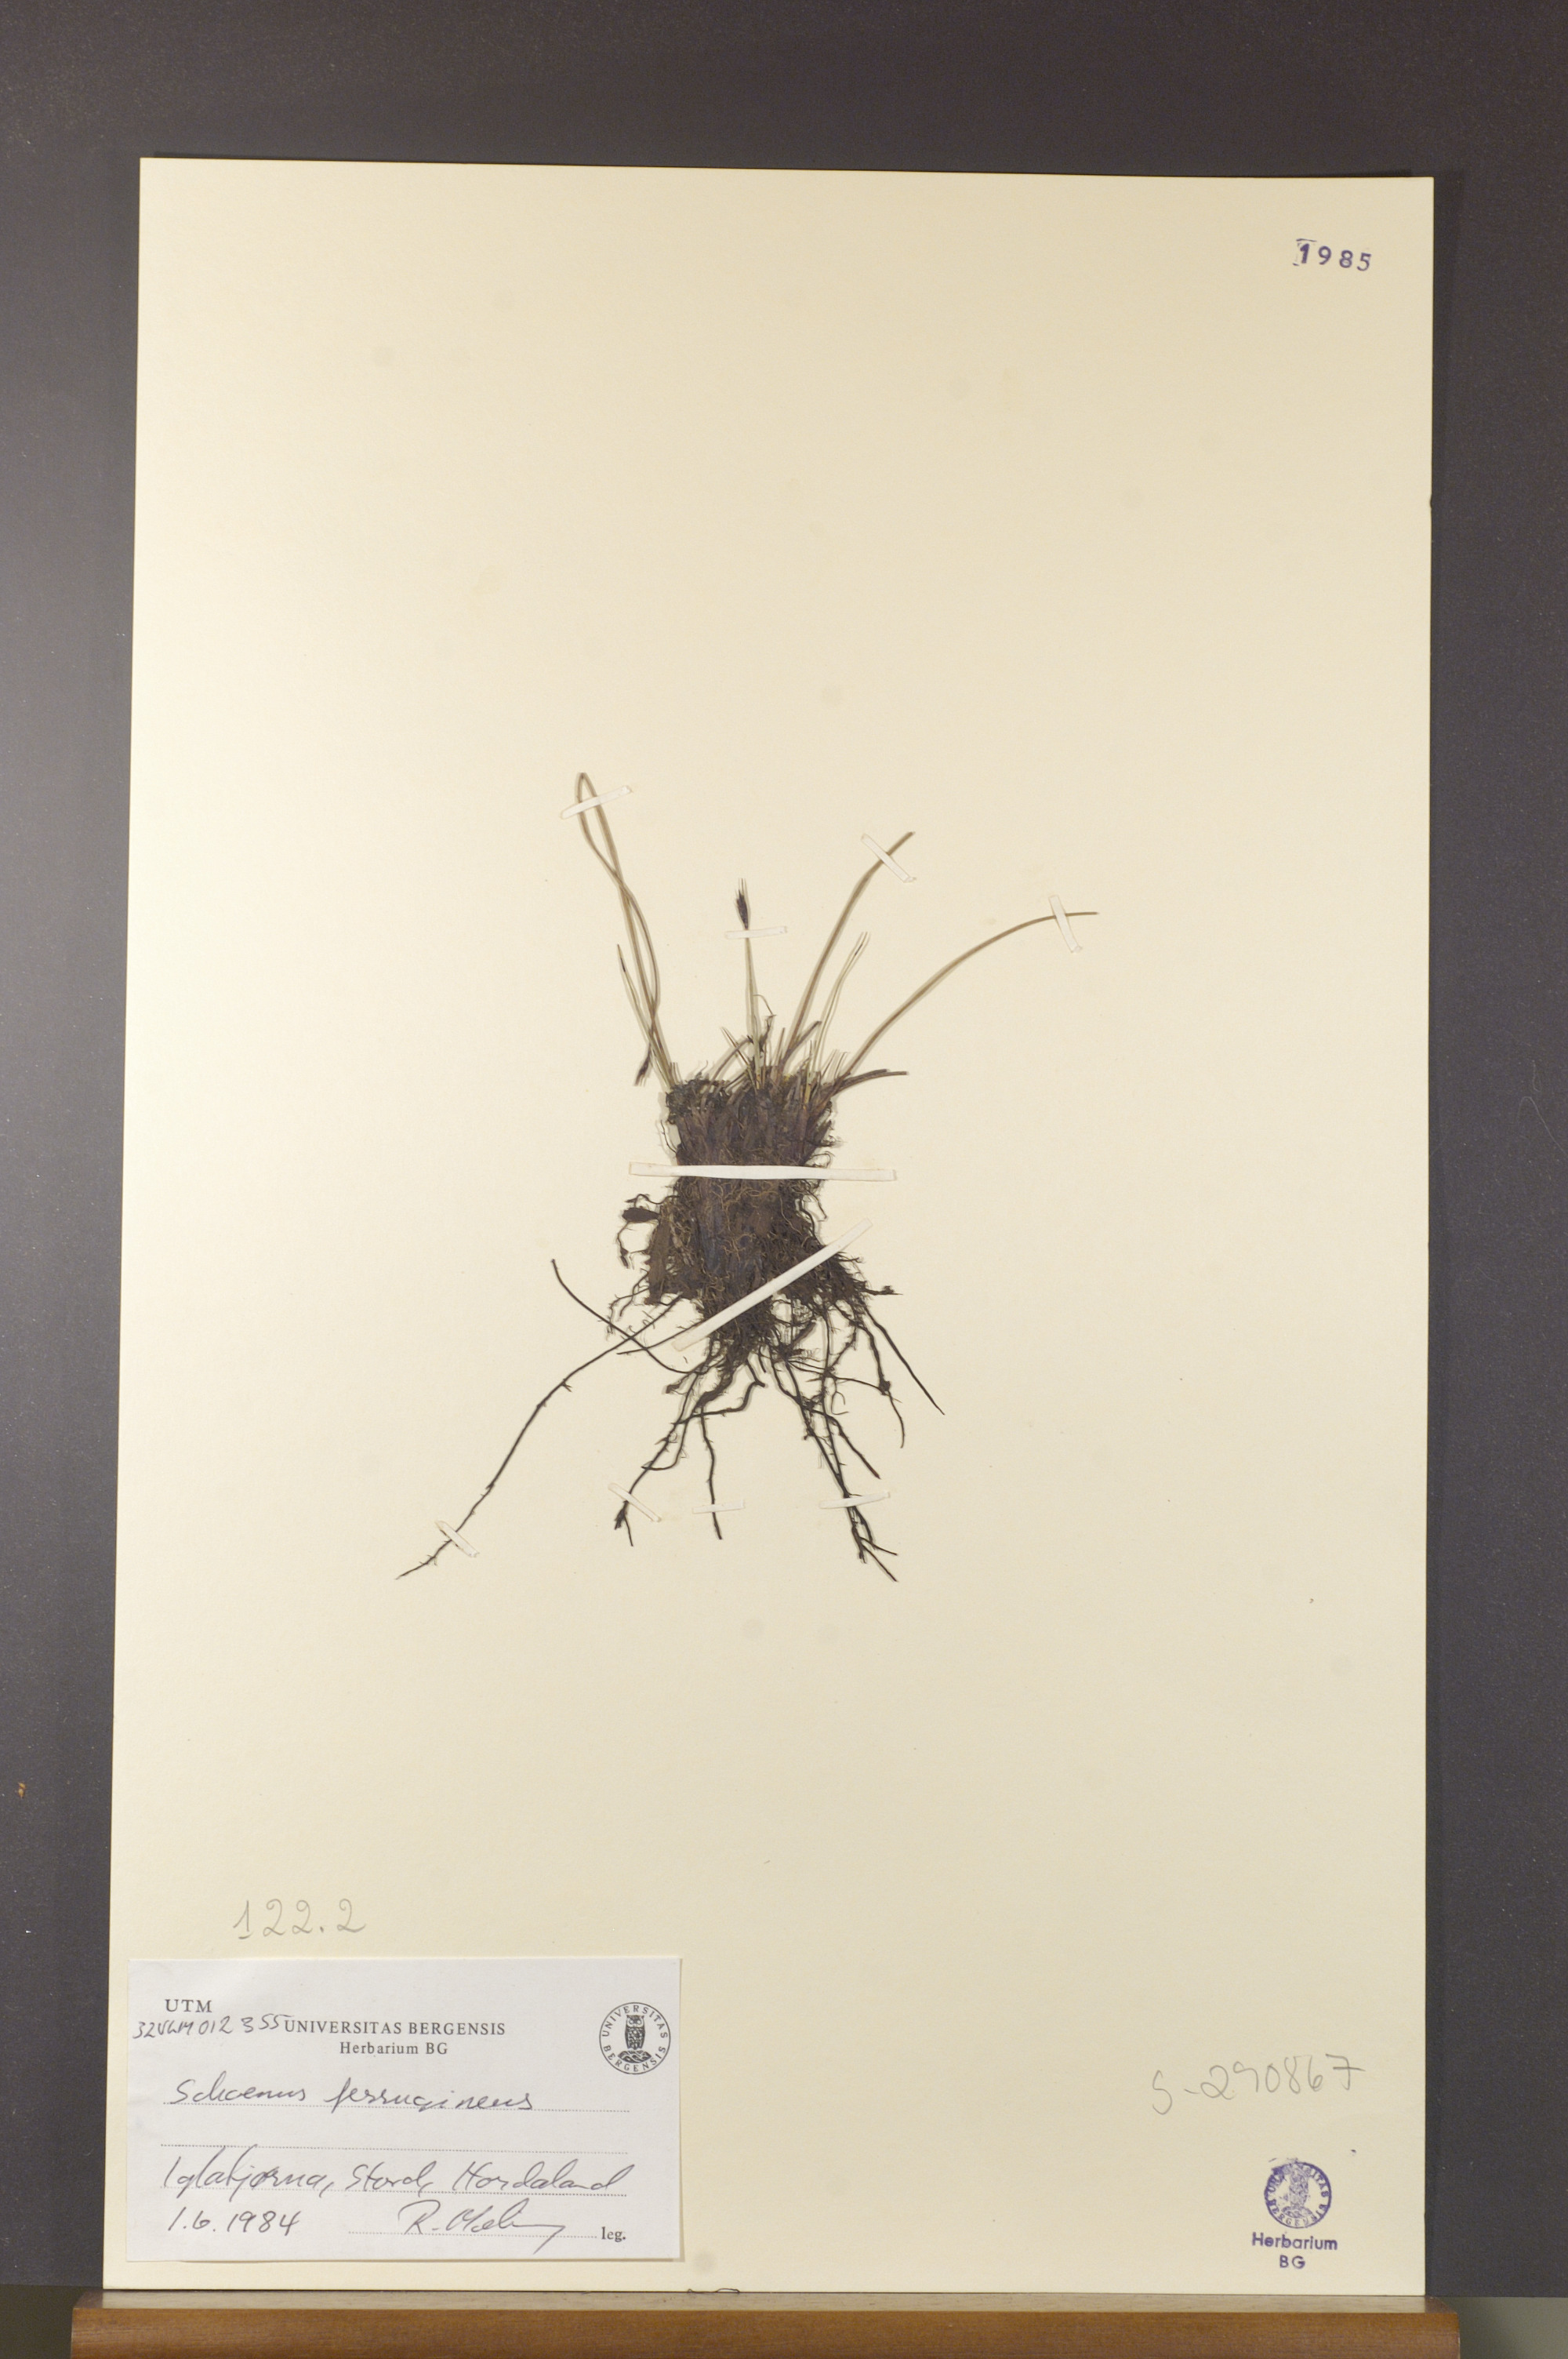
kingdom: Plantae
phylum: Tracheophyta
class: Liliopsida
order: Poales
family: Cyperaceae
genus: Schoenus
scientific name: Schoenus ferrugineus
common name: Brown bog-rush
